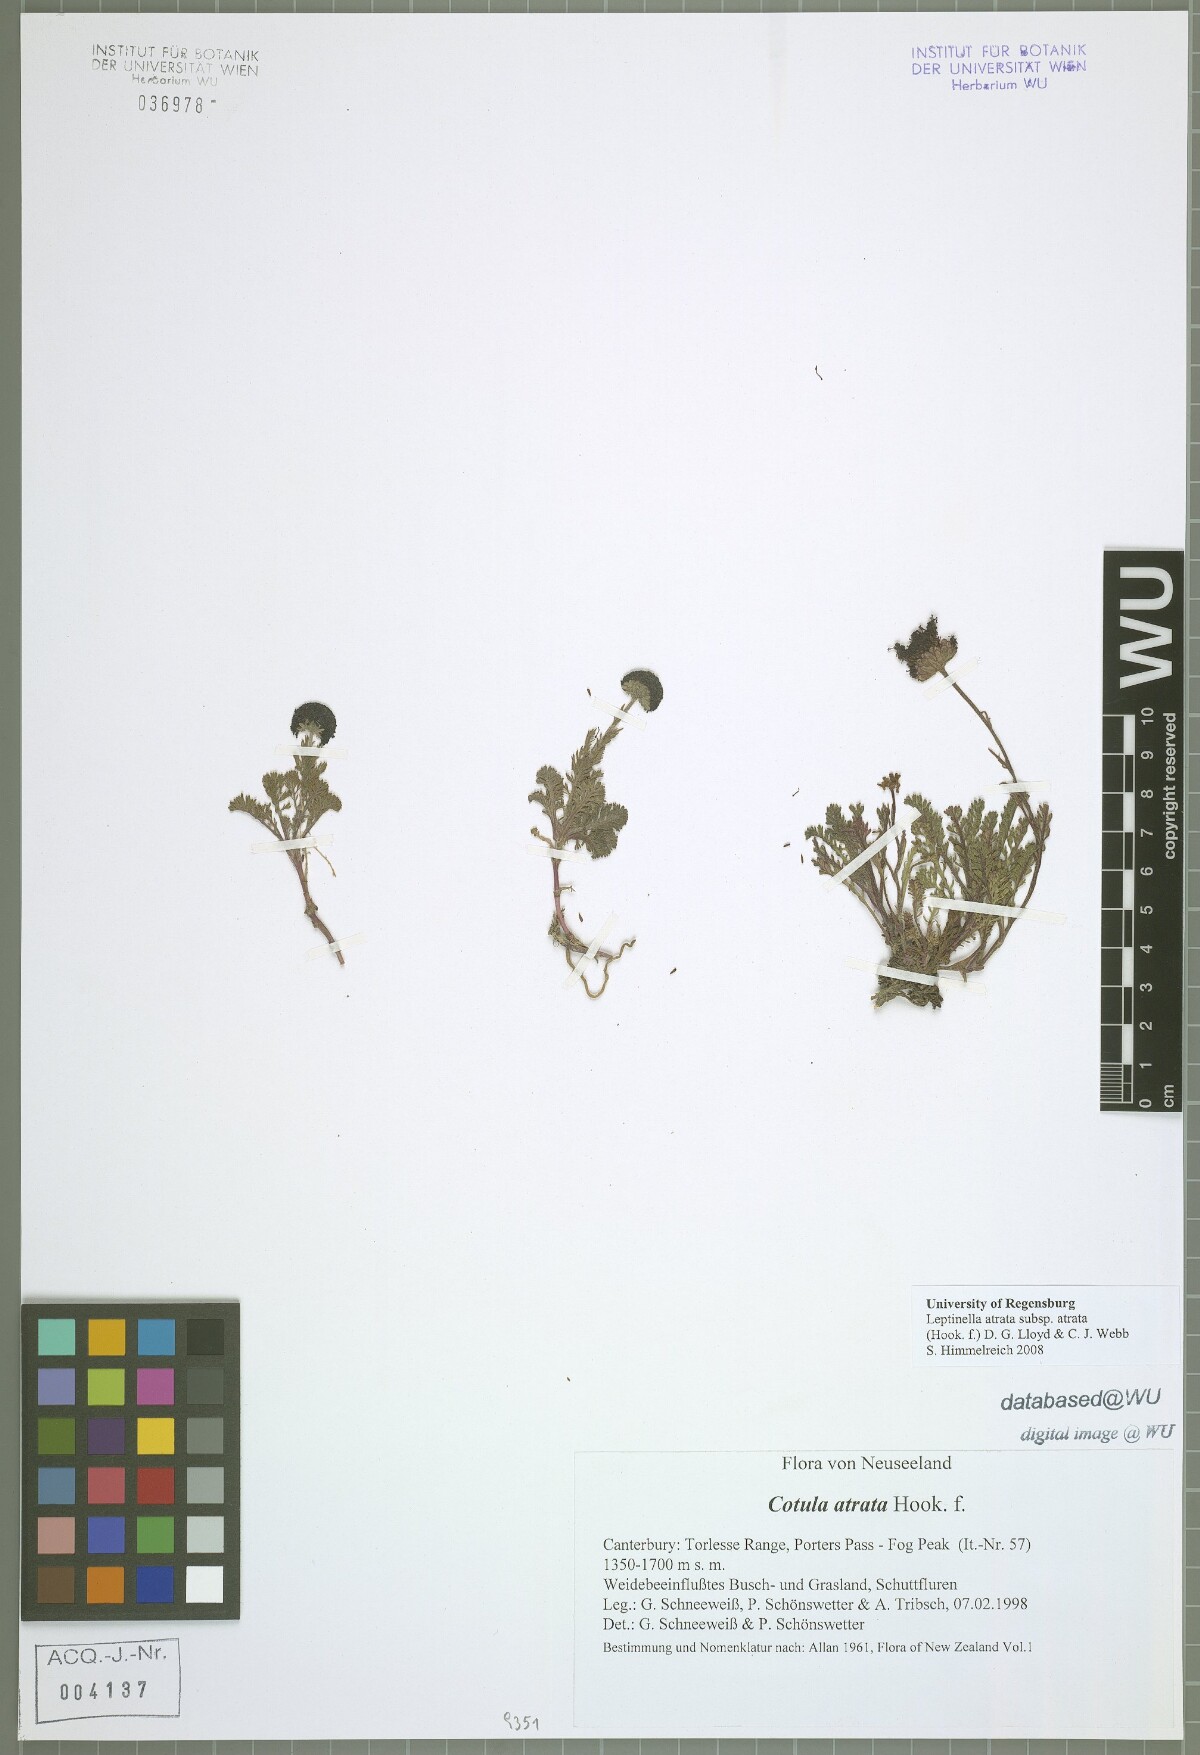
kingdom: Plantae
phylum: Tracheophyta
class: Magnoliopsida
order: Asterales
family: Asteraceae
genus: Leptinella
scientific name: Leptinella atrata
